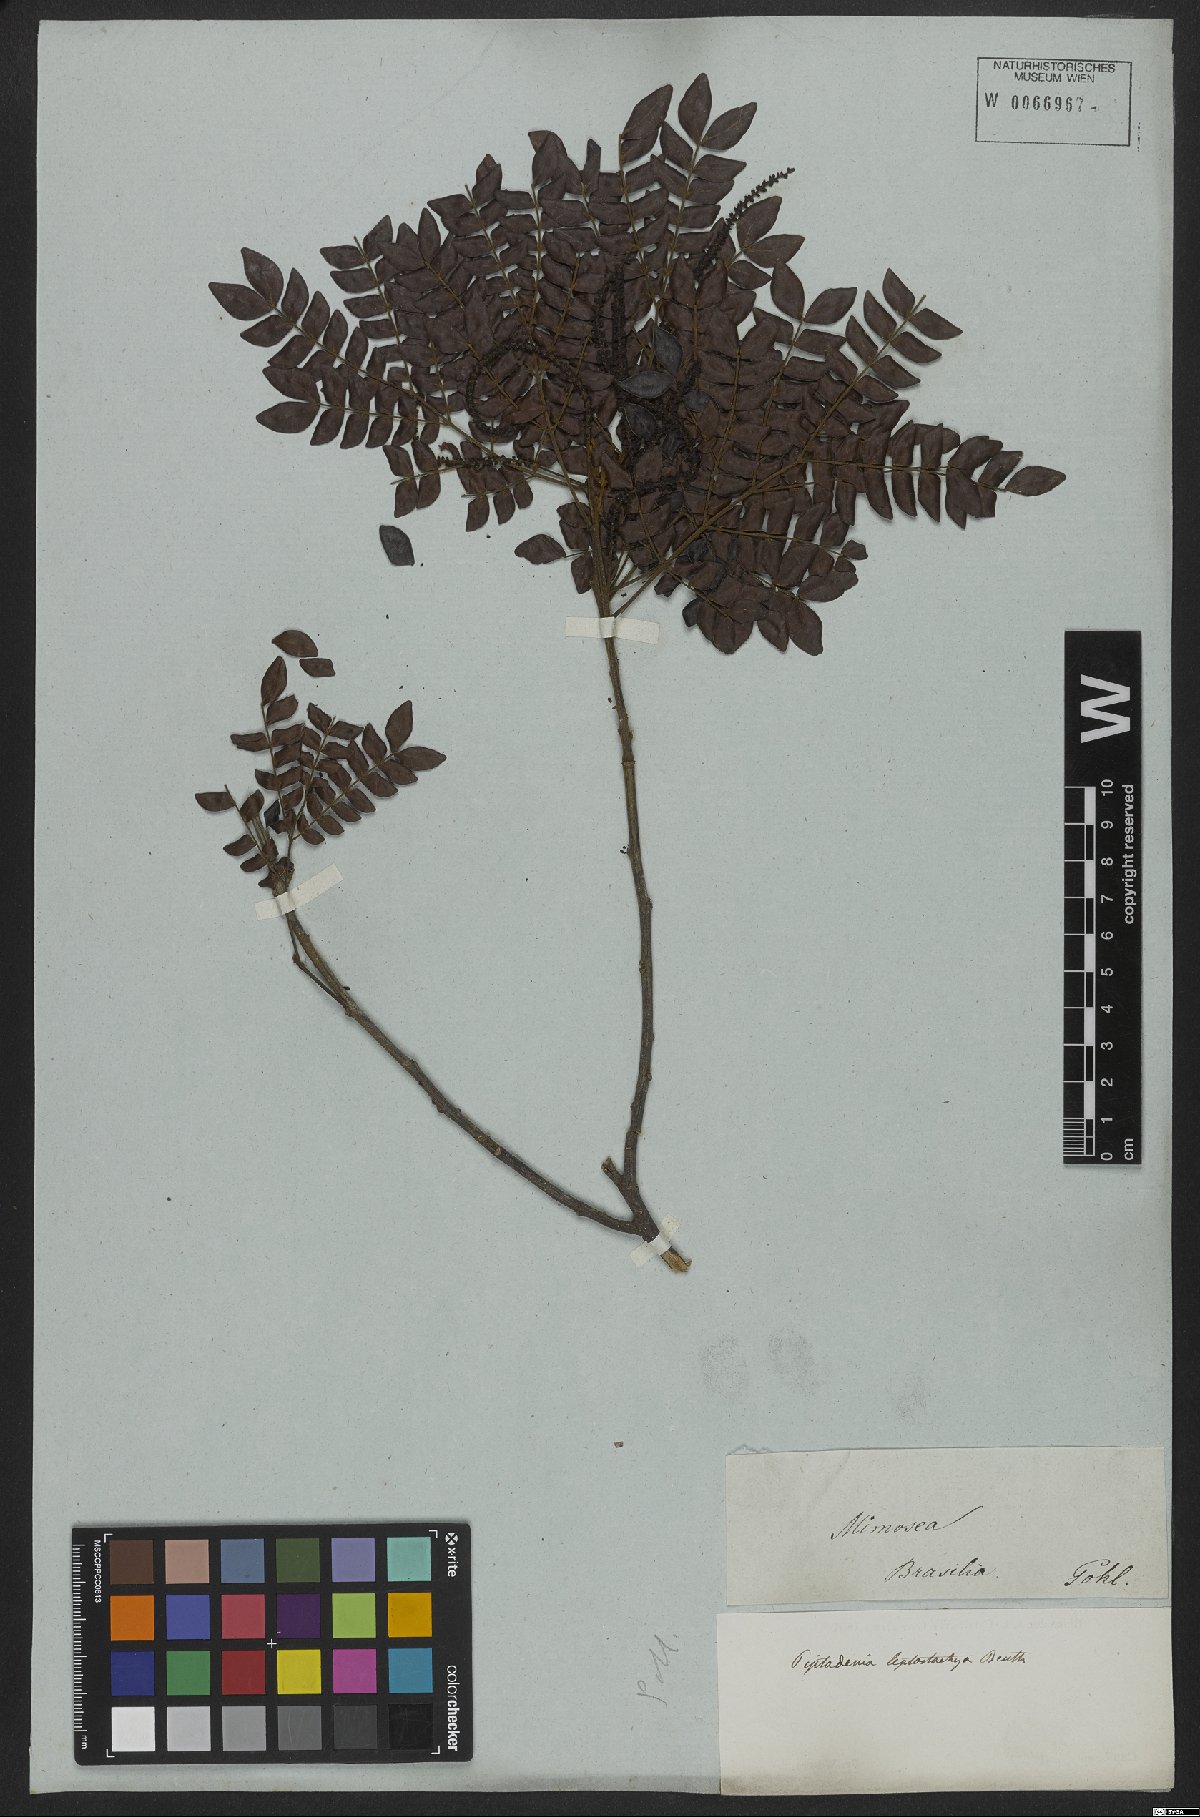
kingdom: Plantae
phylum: Tracheophyta
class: Magnoliopsida
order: Fabales
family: Fabaceae
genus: Pseudopiptadenia
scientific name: Pseudopiptadenia leptostachya
